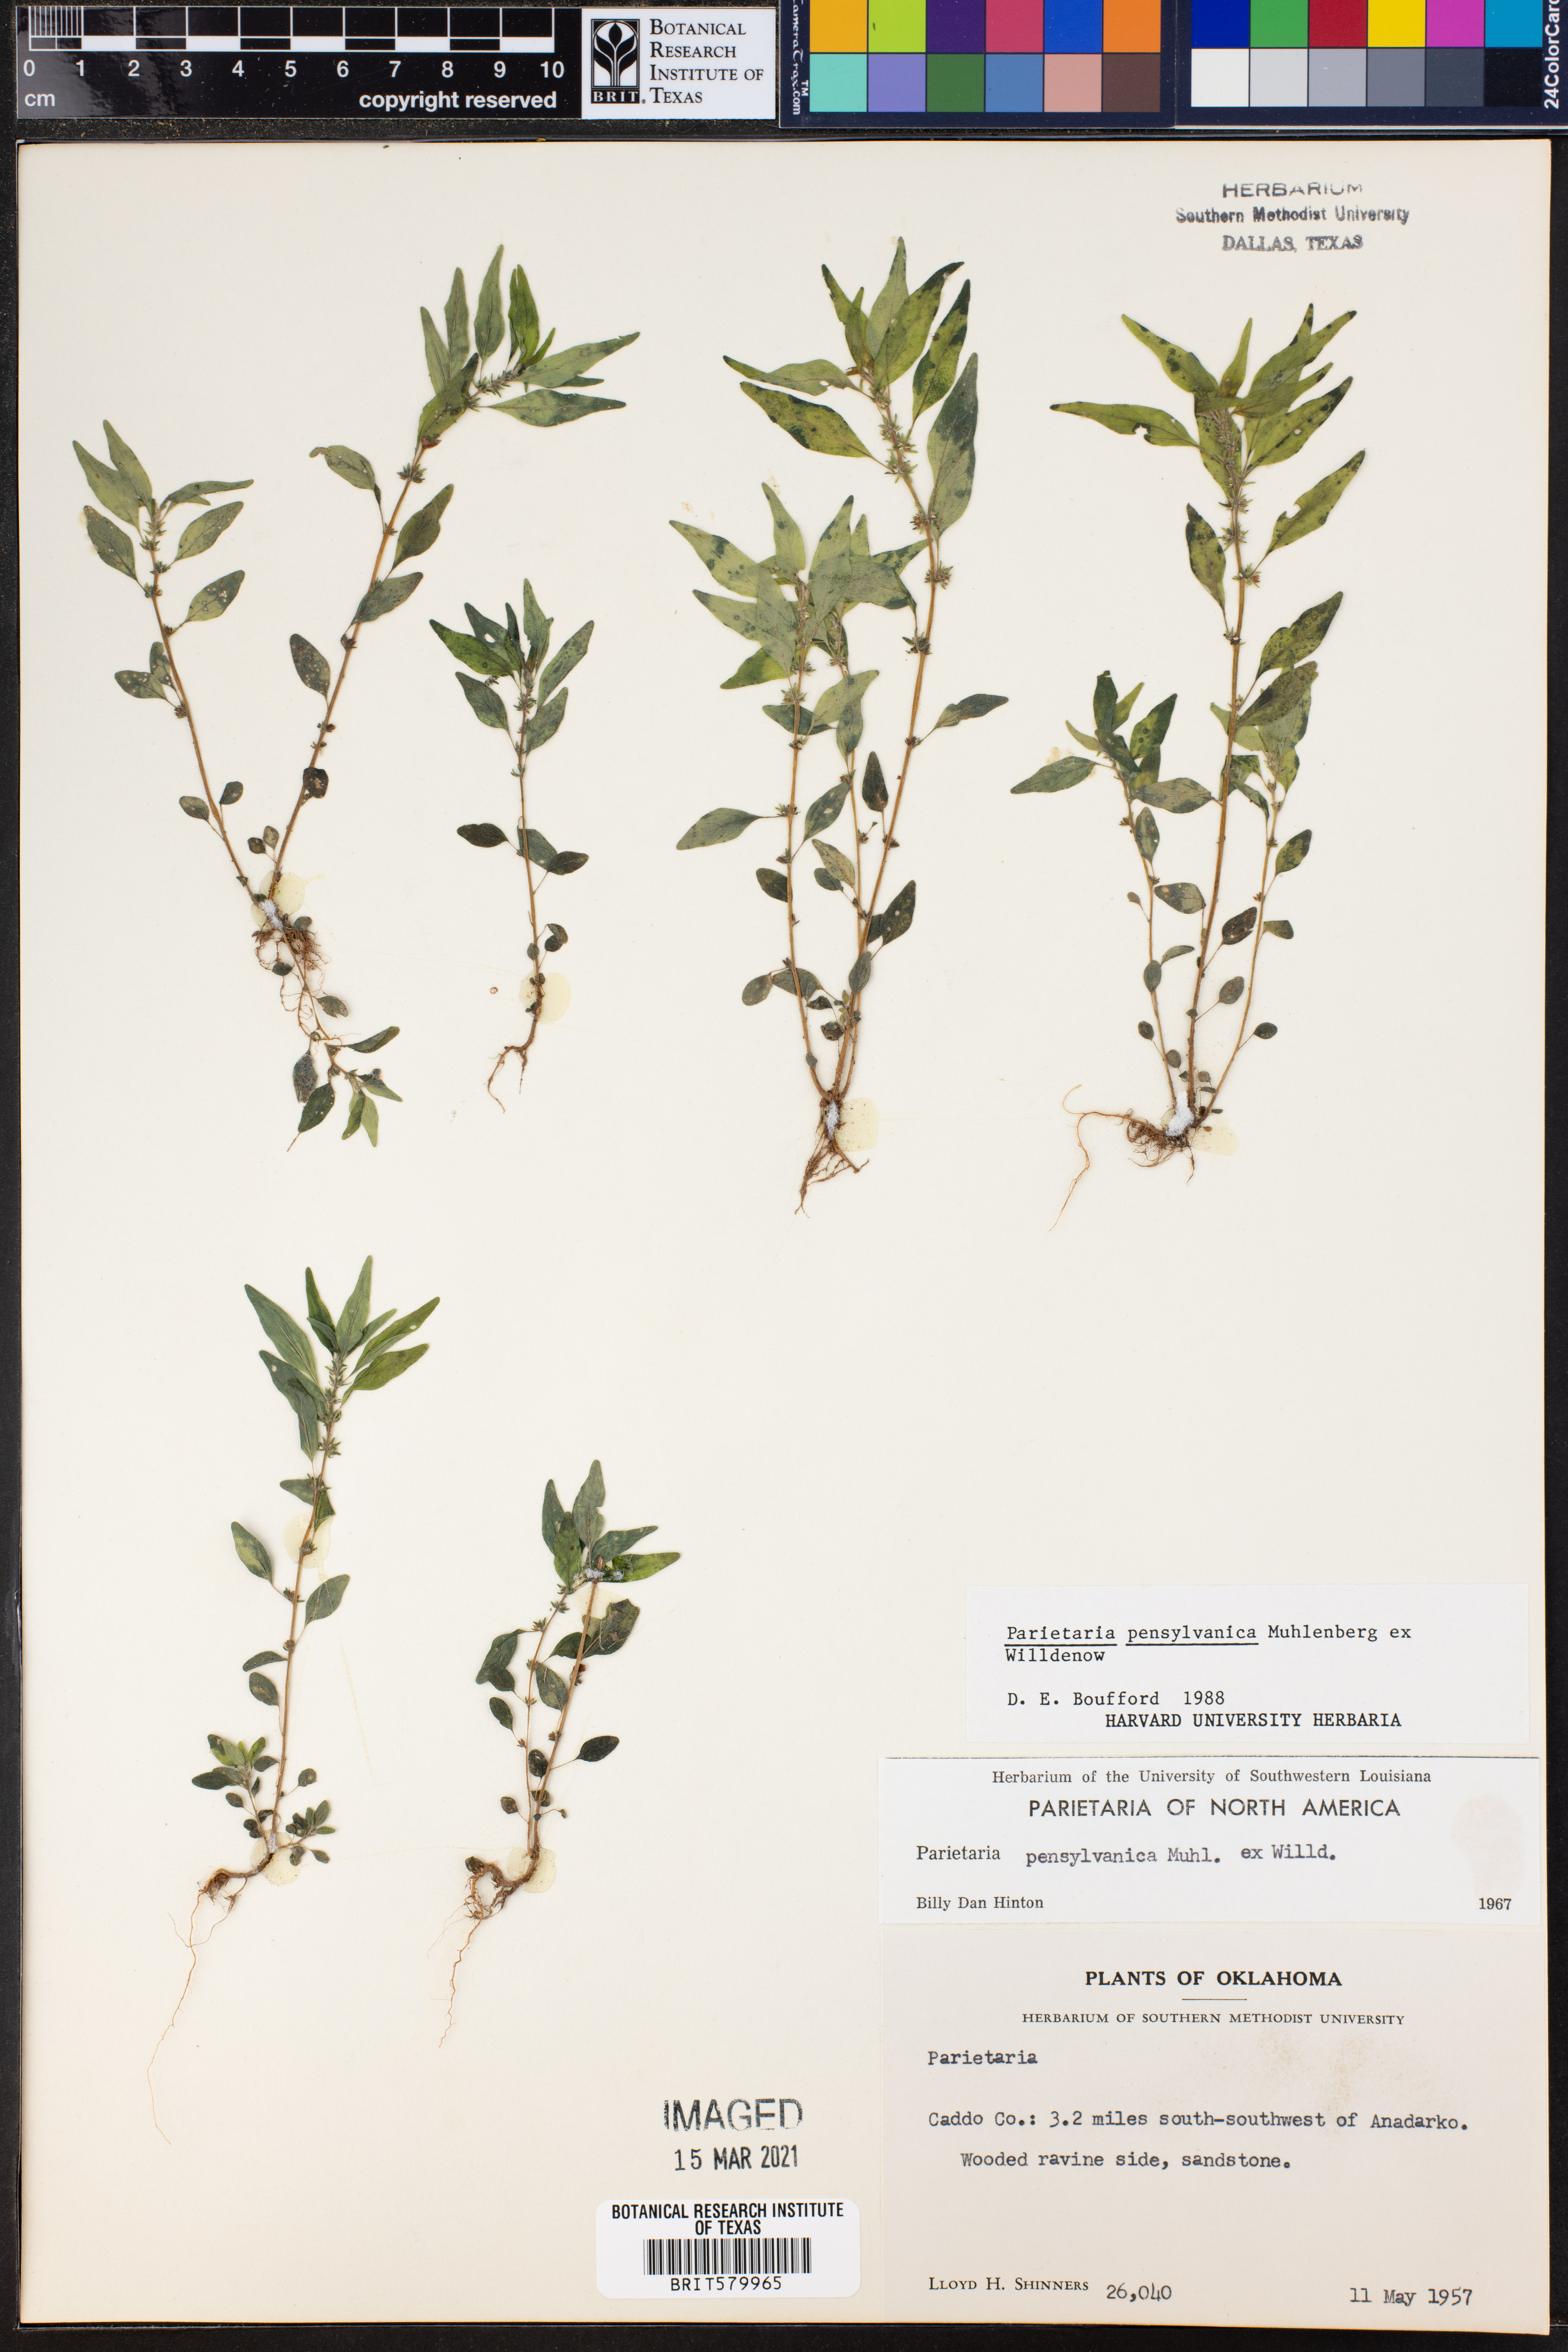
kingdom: Plantae
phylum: Tracheophyta
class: Magnoliopsida
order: Rosales
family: Urticaceae
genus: Parietaria
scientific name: Parietaria pensylvanica
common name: Pennsylvania pellitory
